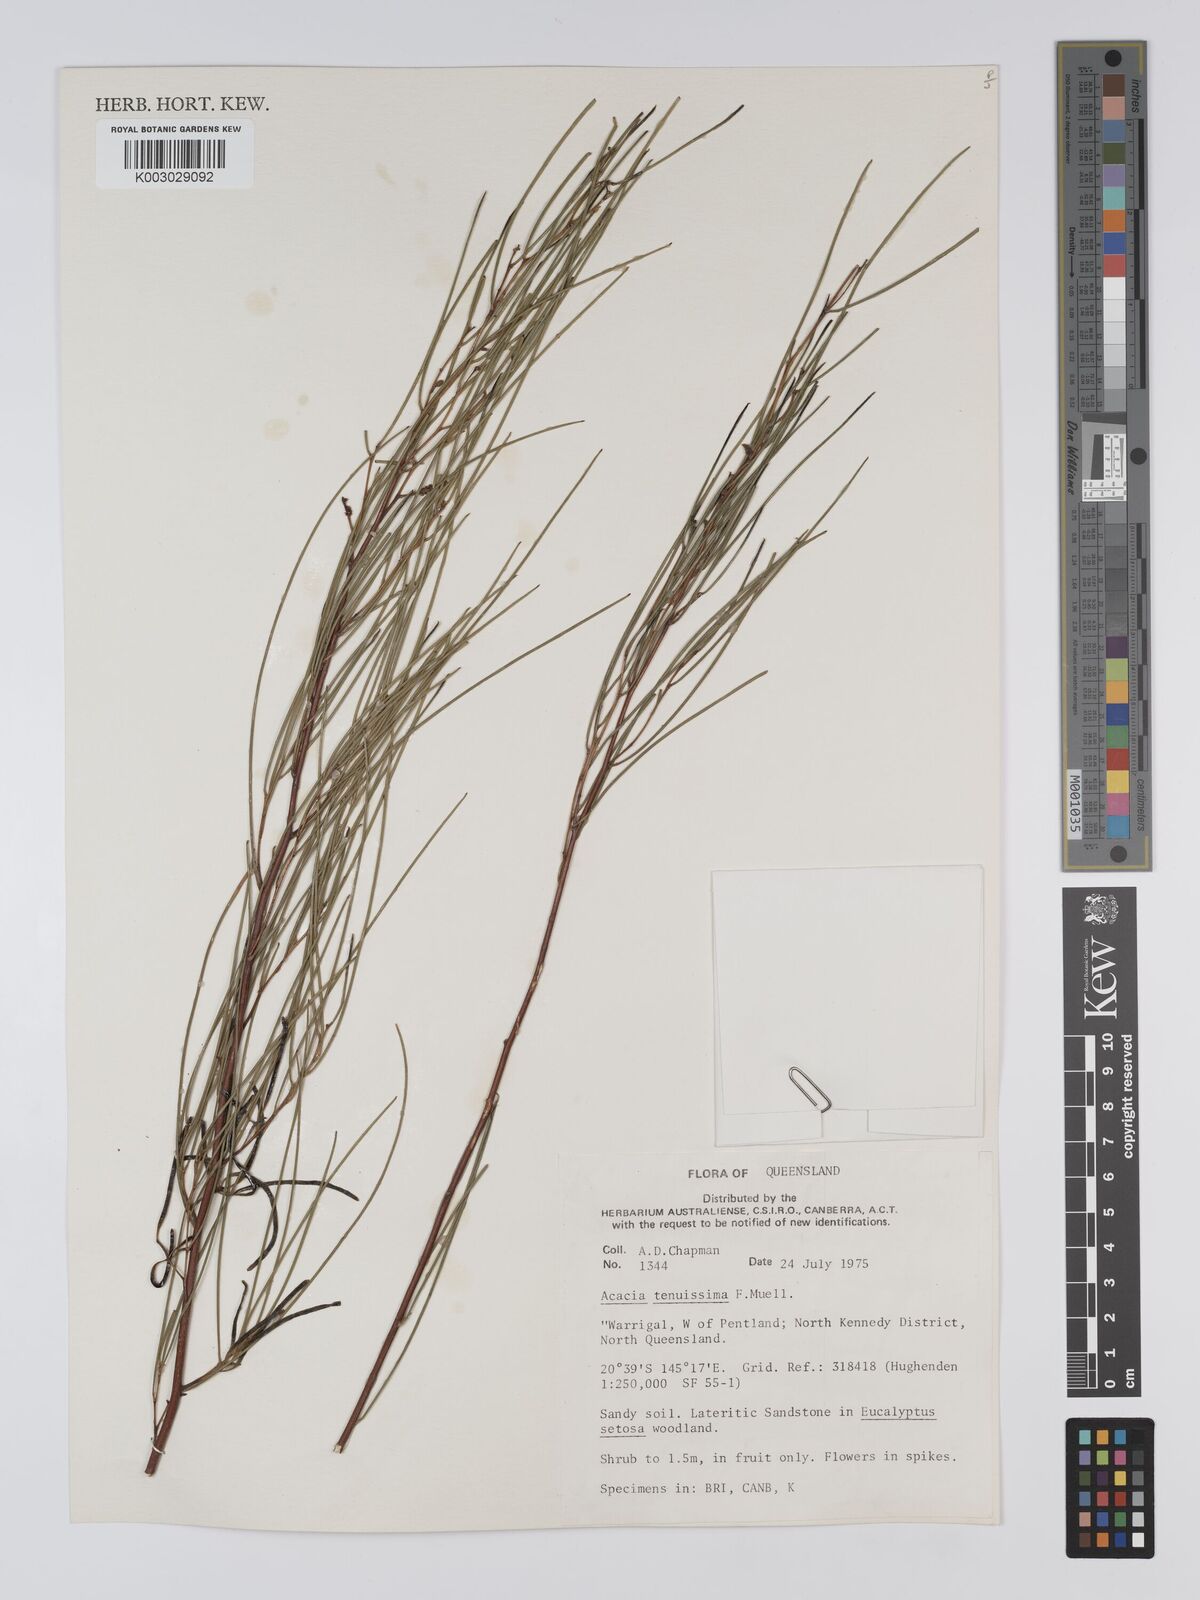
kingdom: Plantae
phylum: Tracheophyta
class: Magnoliopsida
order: Fabales
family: Fabaceae
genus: Acacia
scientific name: Acacia tenuissima
